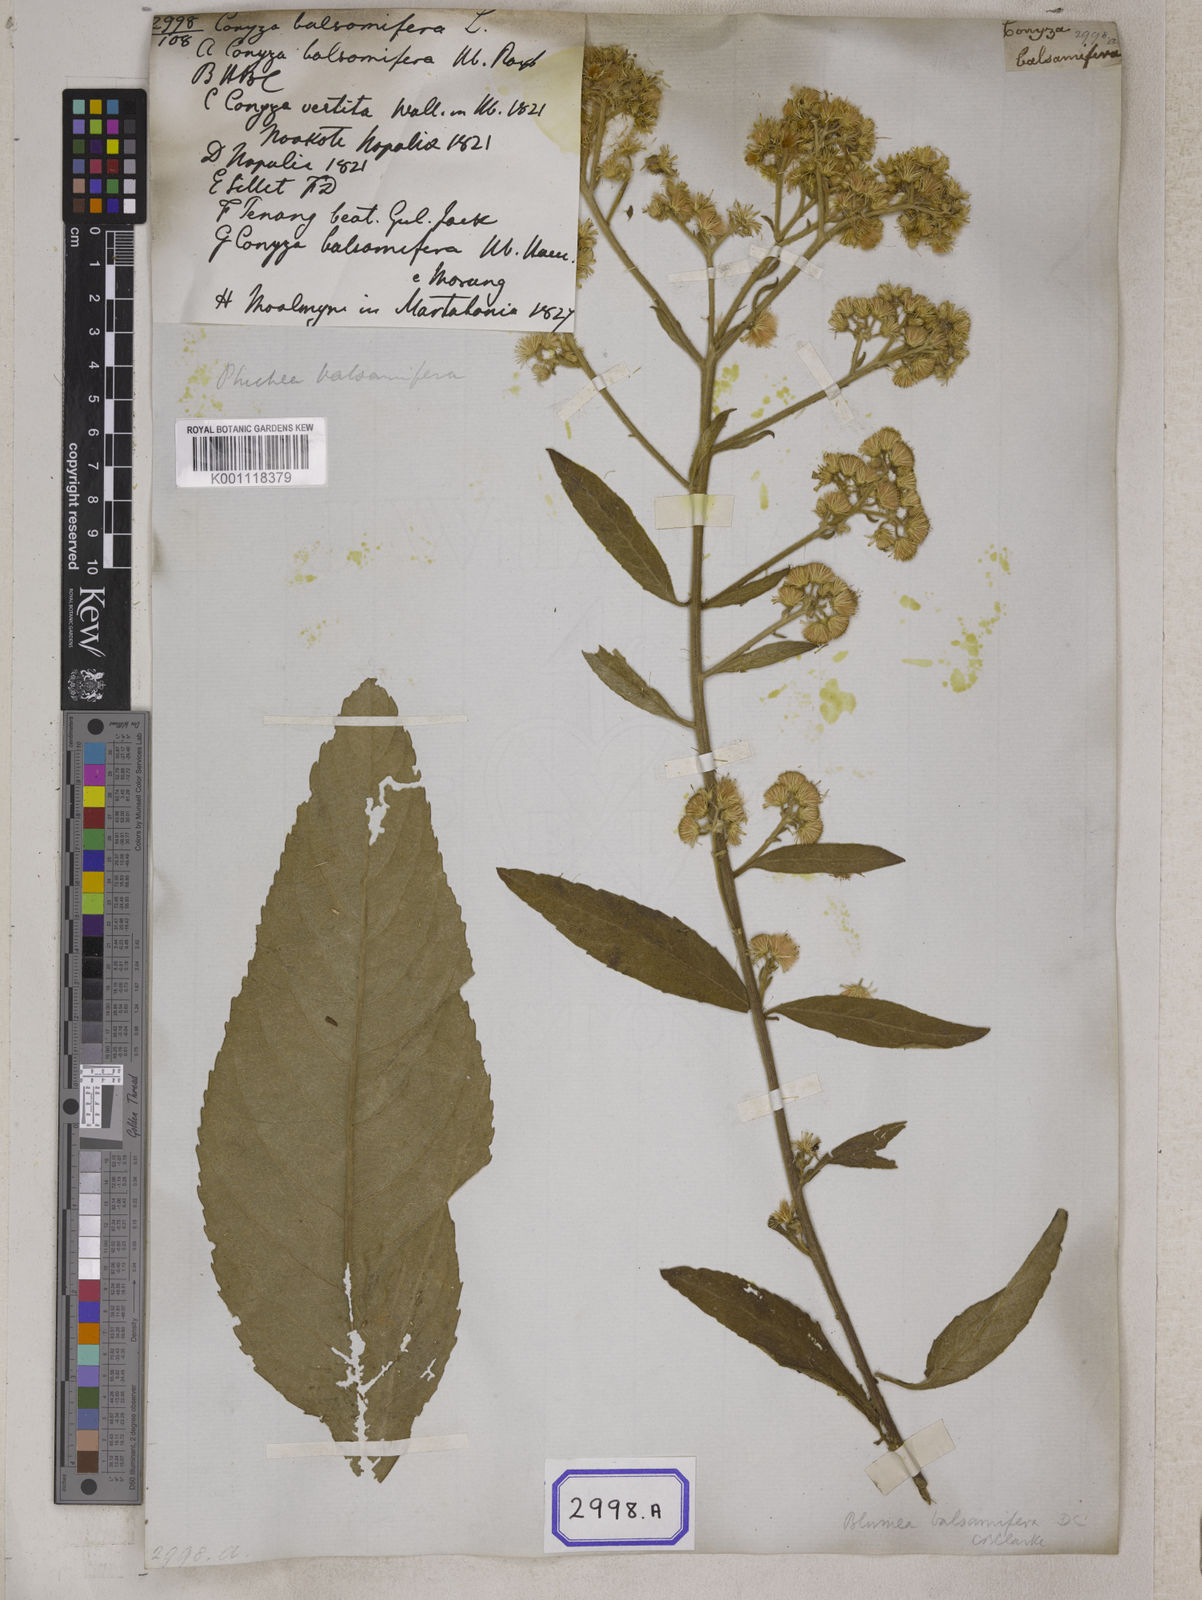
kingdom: Plantae
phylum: Tracheophyta
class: Magnoliopsida
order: Asterales
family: Asteraceae
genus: Blumea
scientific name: Blumea balsamifera
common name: Ngai camphor
